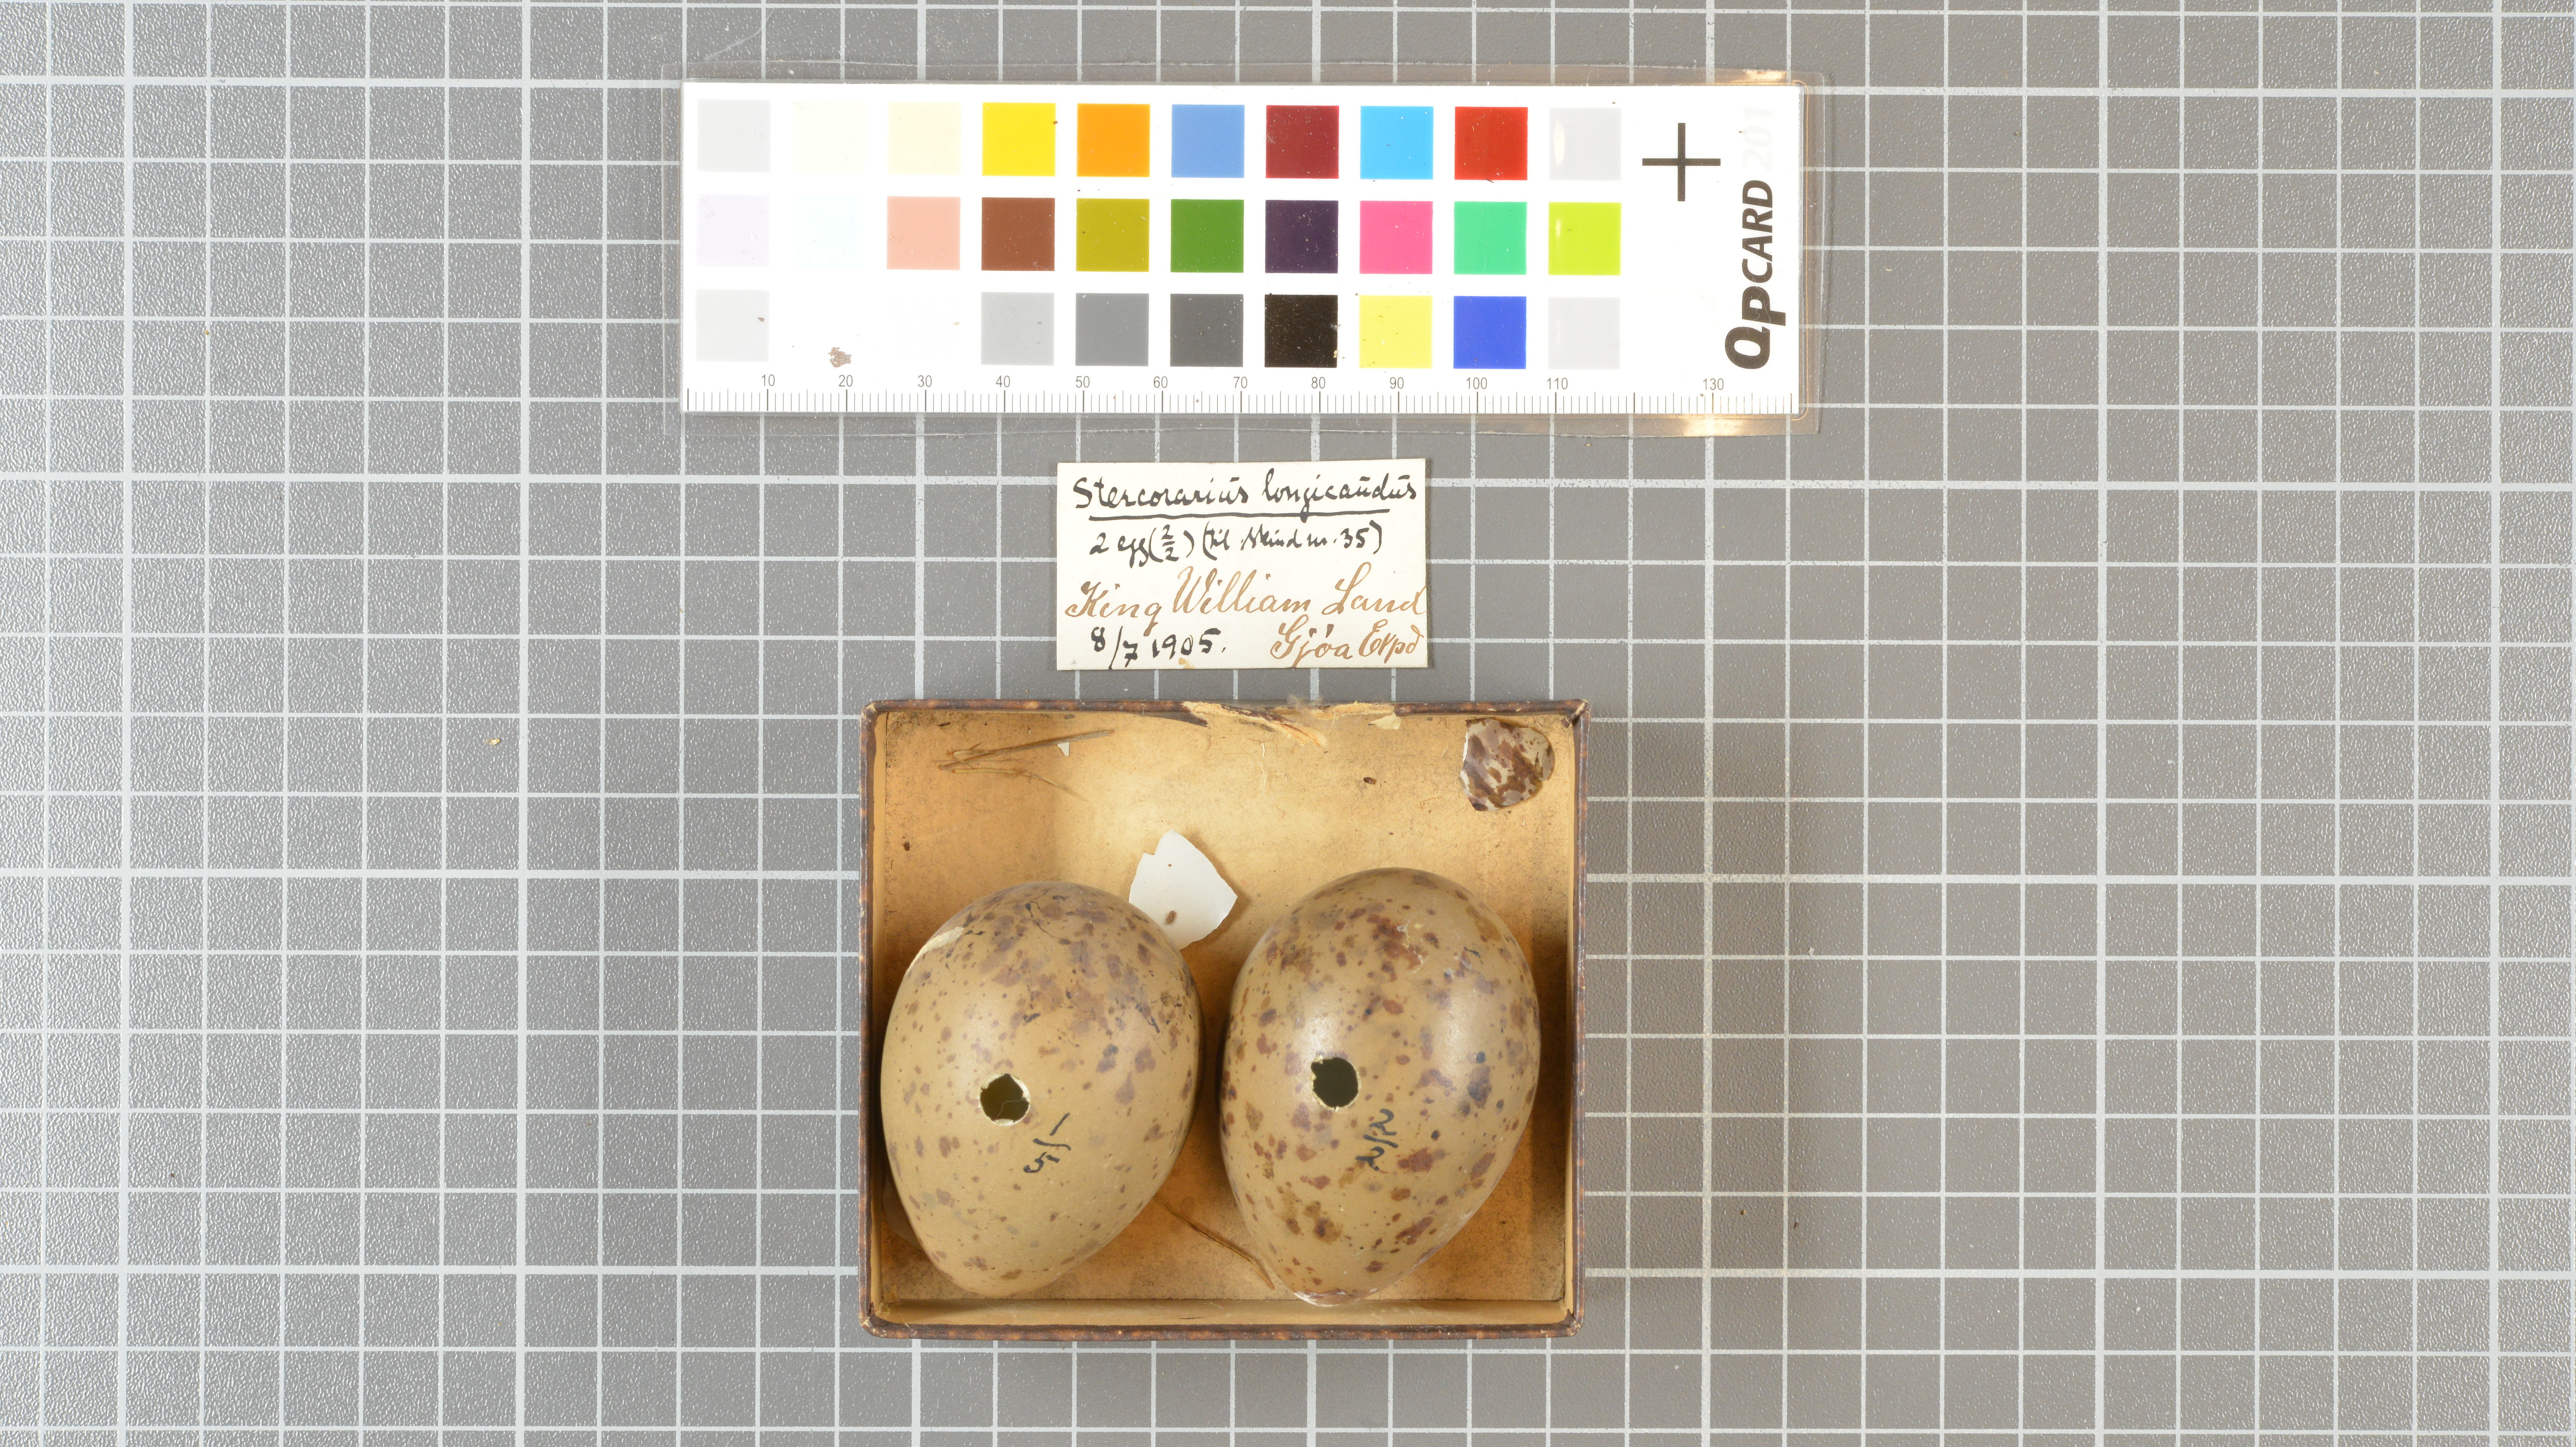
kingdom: Animalia
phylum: Chordata
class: Aves
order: Charadriiformes
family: Stercorariidae
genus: Stercorarius
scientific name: Stercorarius longicaudus
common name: Long-tailed jaeger
